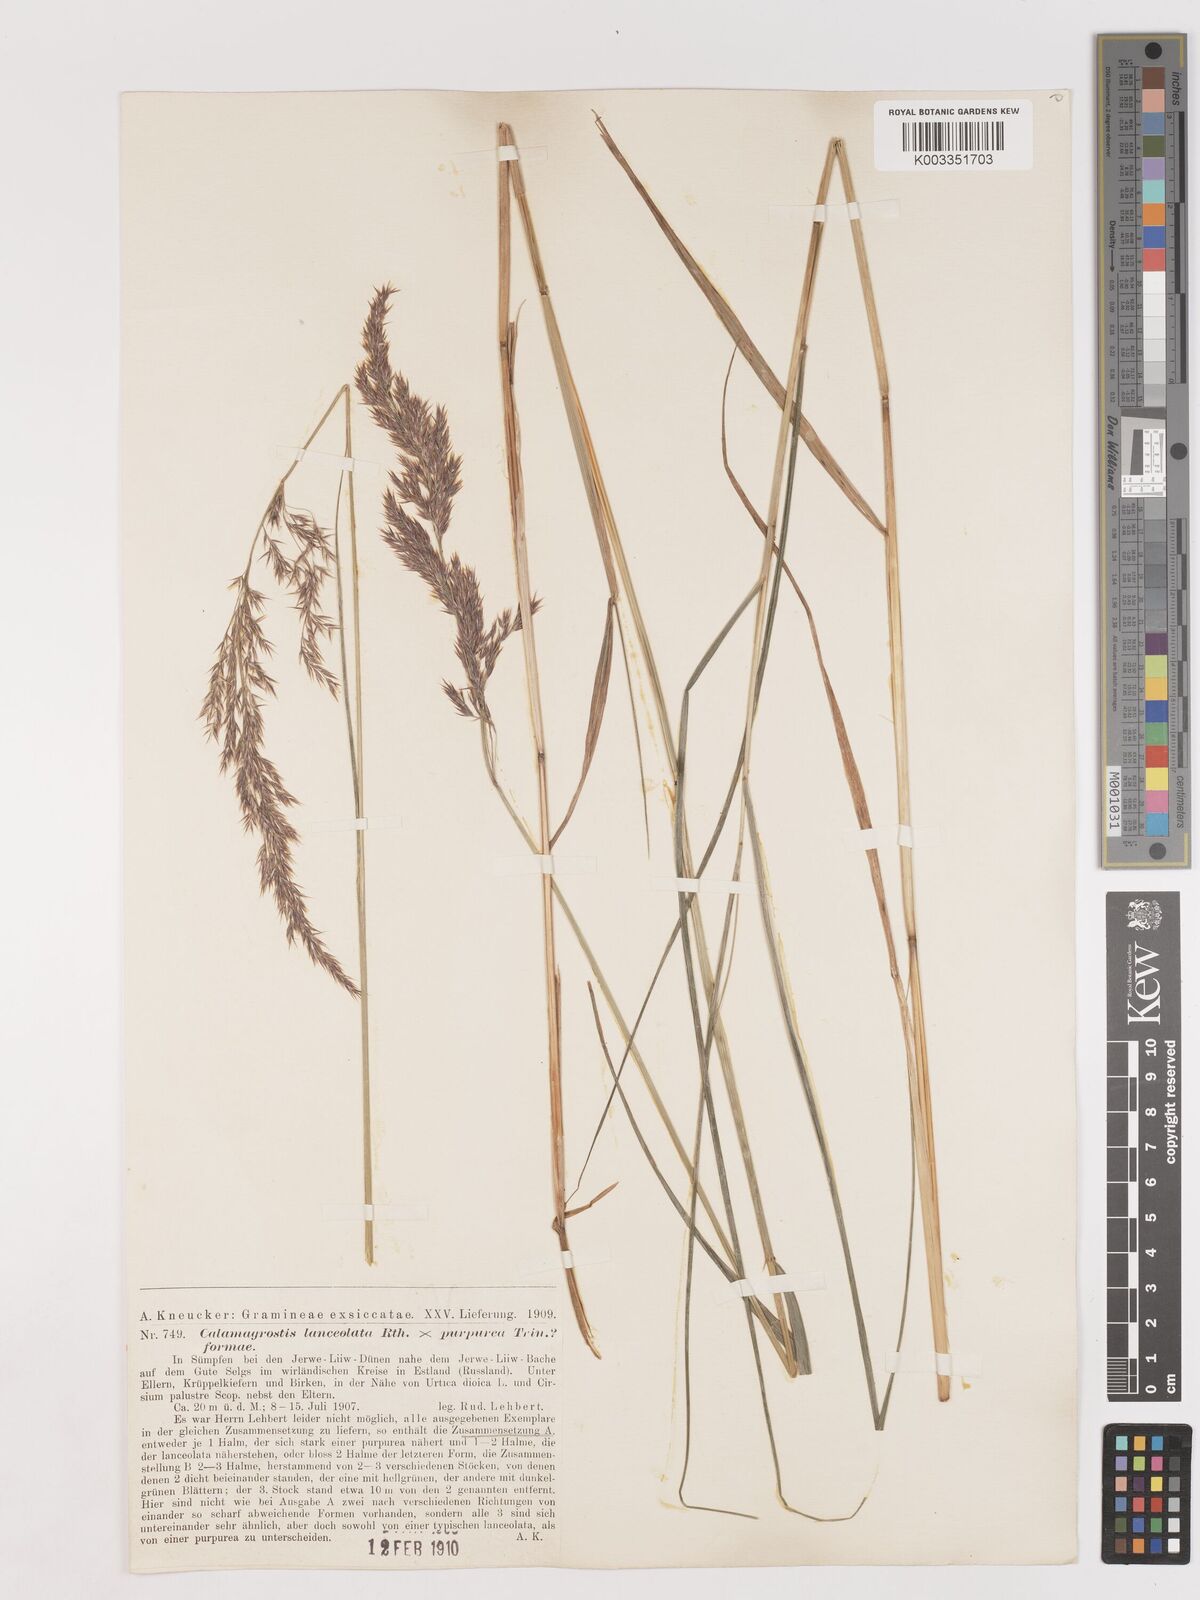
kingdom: Plantae
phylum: Tracheophyta
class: Liliopsida
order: Poales
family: Poaceae
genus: Calamagrostis
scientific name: Calamagrostis canescens
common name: Purple small-reed
